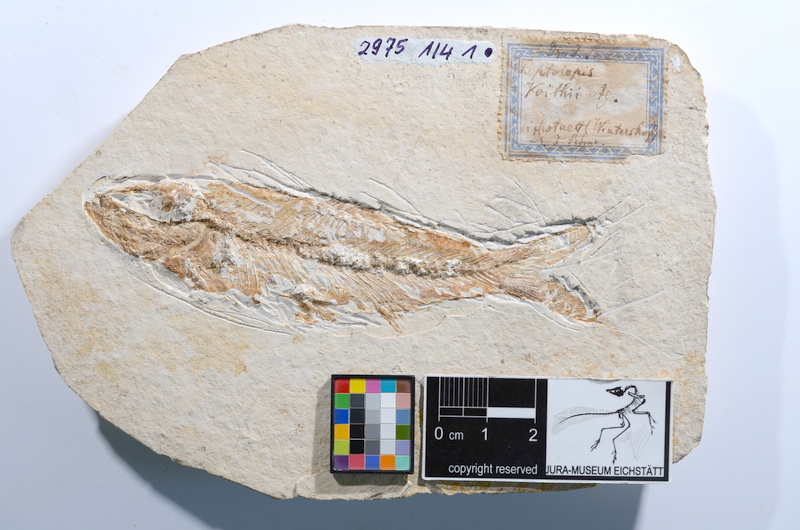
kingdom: Animalia
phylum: Chordata
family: Ascalaboidae
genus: Ascalabos
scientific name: Ascalabos voithii
